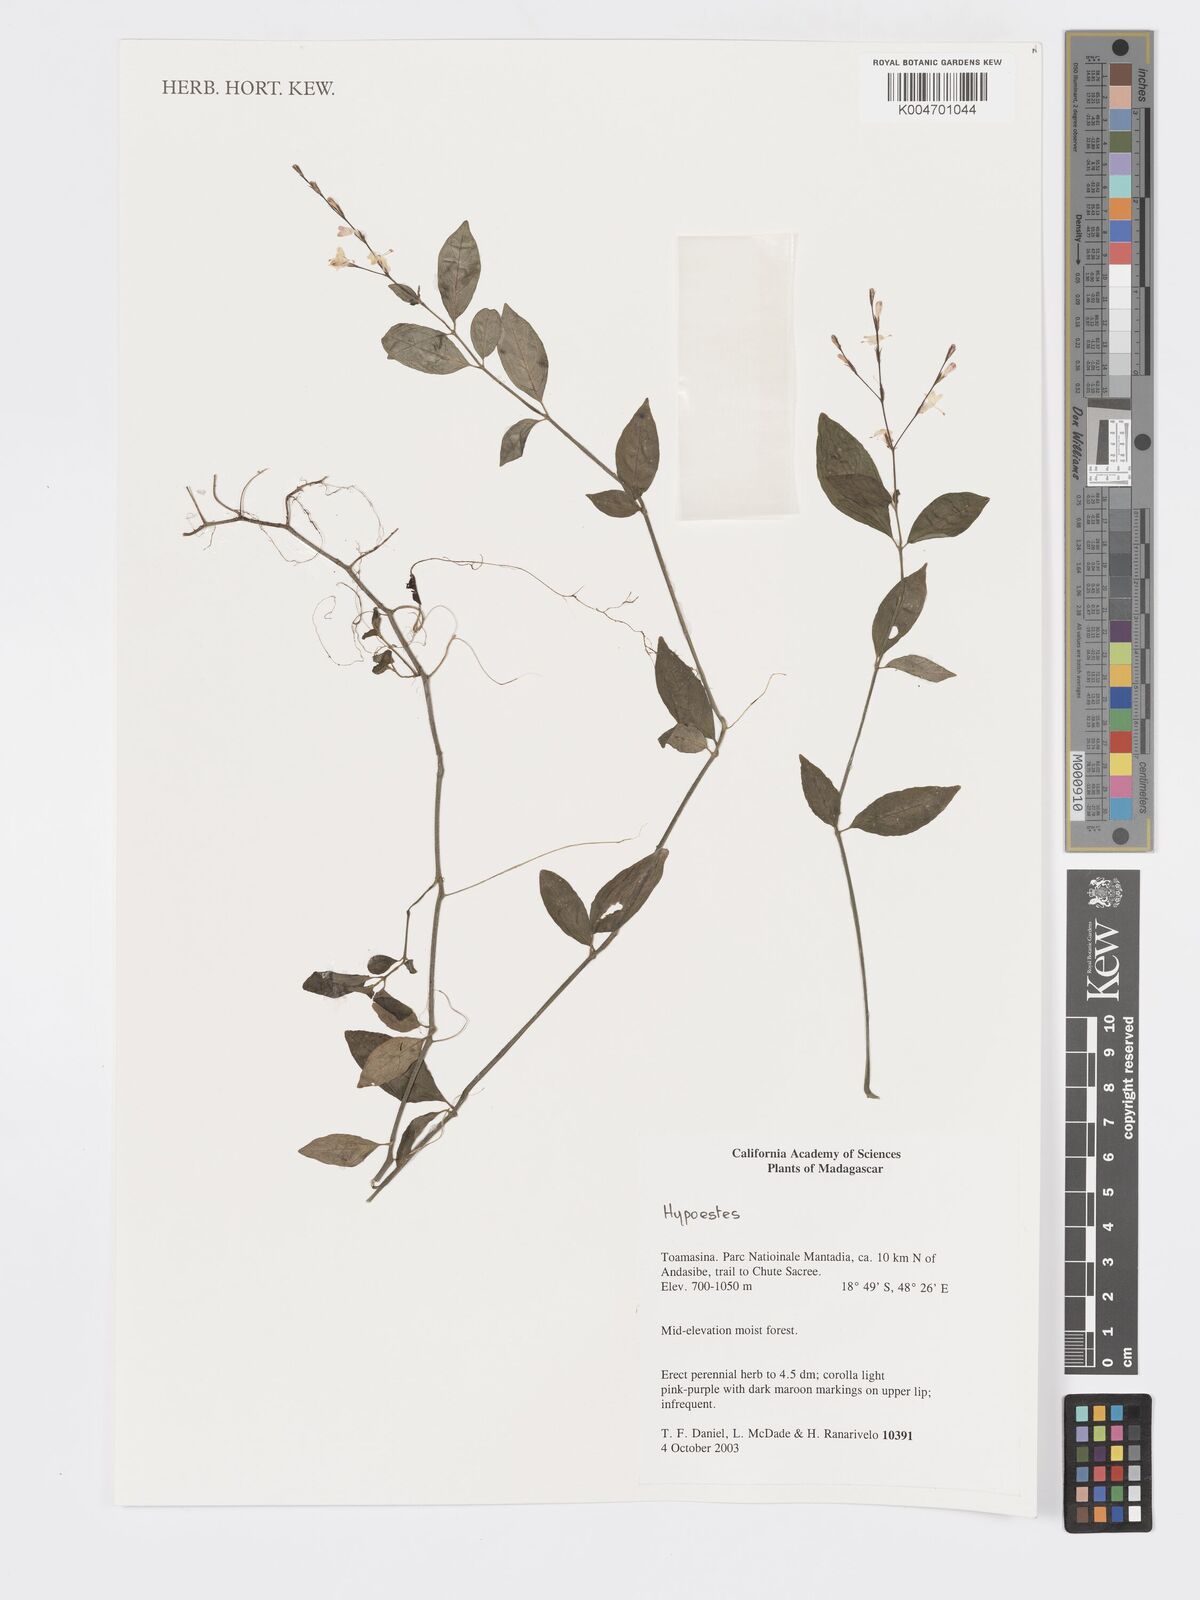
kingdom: Plantae
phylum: Tracheophyta
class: Magnoliopsida
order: Lamiales
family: Acanthaceae
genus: Hypoestes
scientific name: Hypoestes
